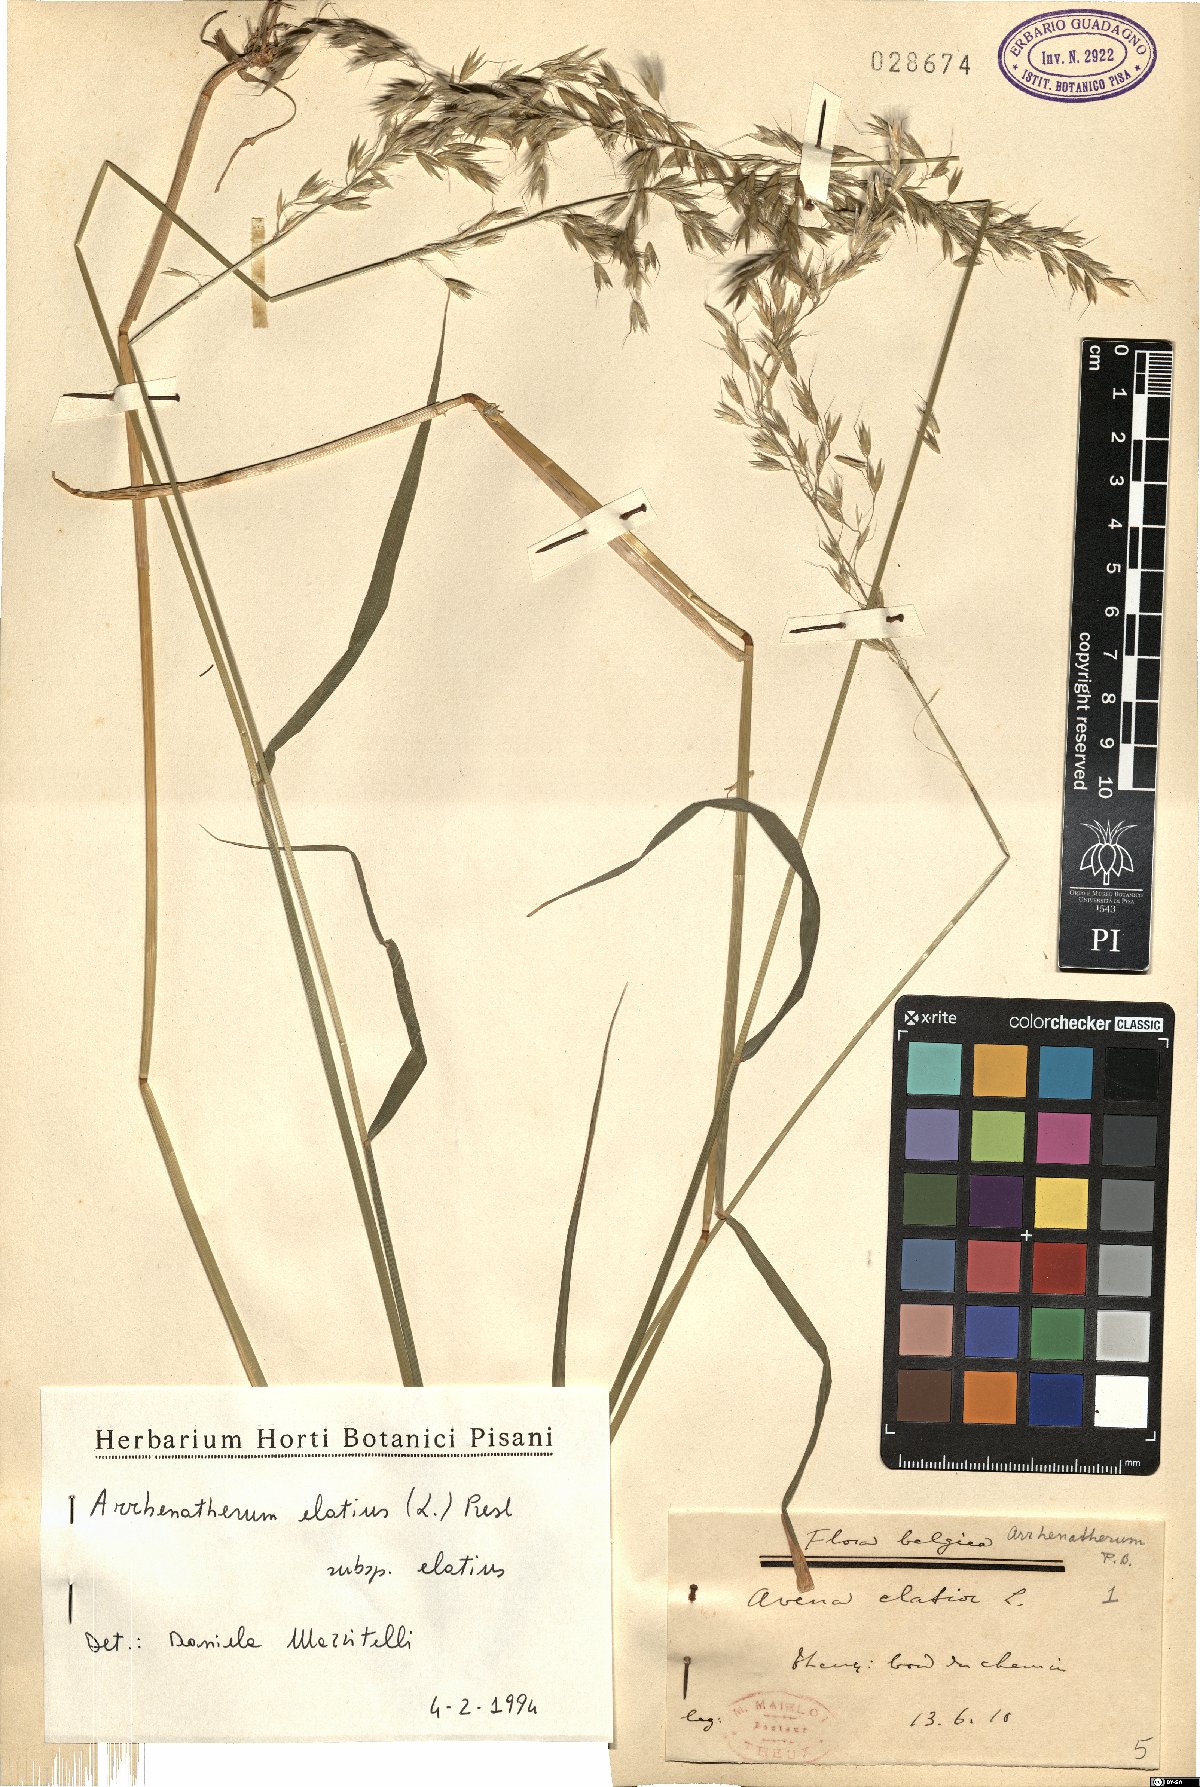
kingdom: Plantae
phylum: Tracheophyta
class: Liliopsida
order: Poales
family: Poaceae
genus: Arrhenatherum
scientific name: Arrhenatherum elatius
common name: Tall oatgrass
